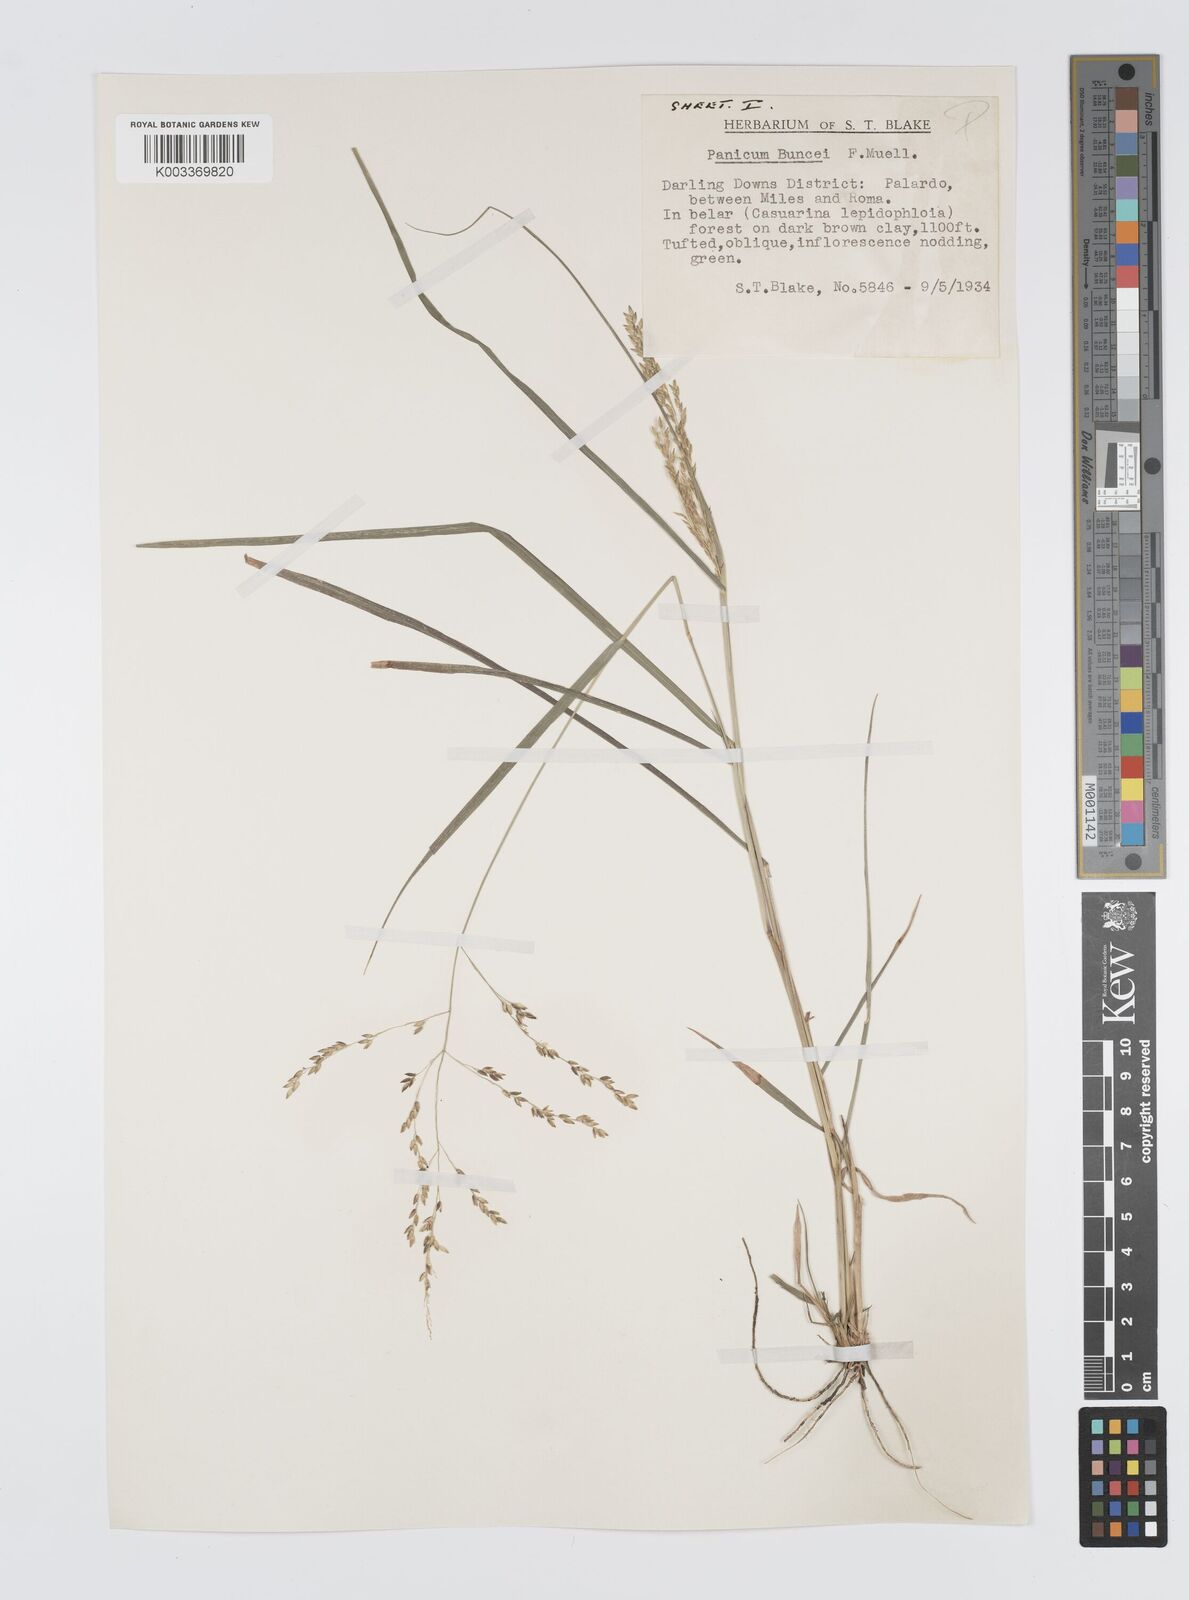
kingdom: Plantae
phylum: Tracheophyta
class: Liliopsida
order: Poales
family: Poaceae
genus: Panicum
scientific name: Panicum buncei
